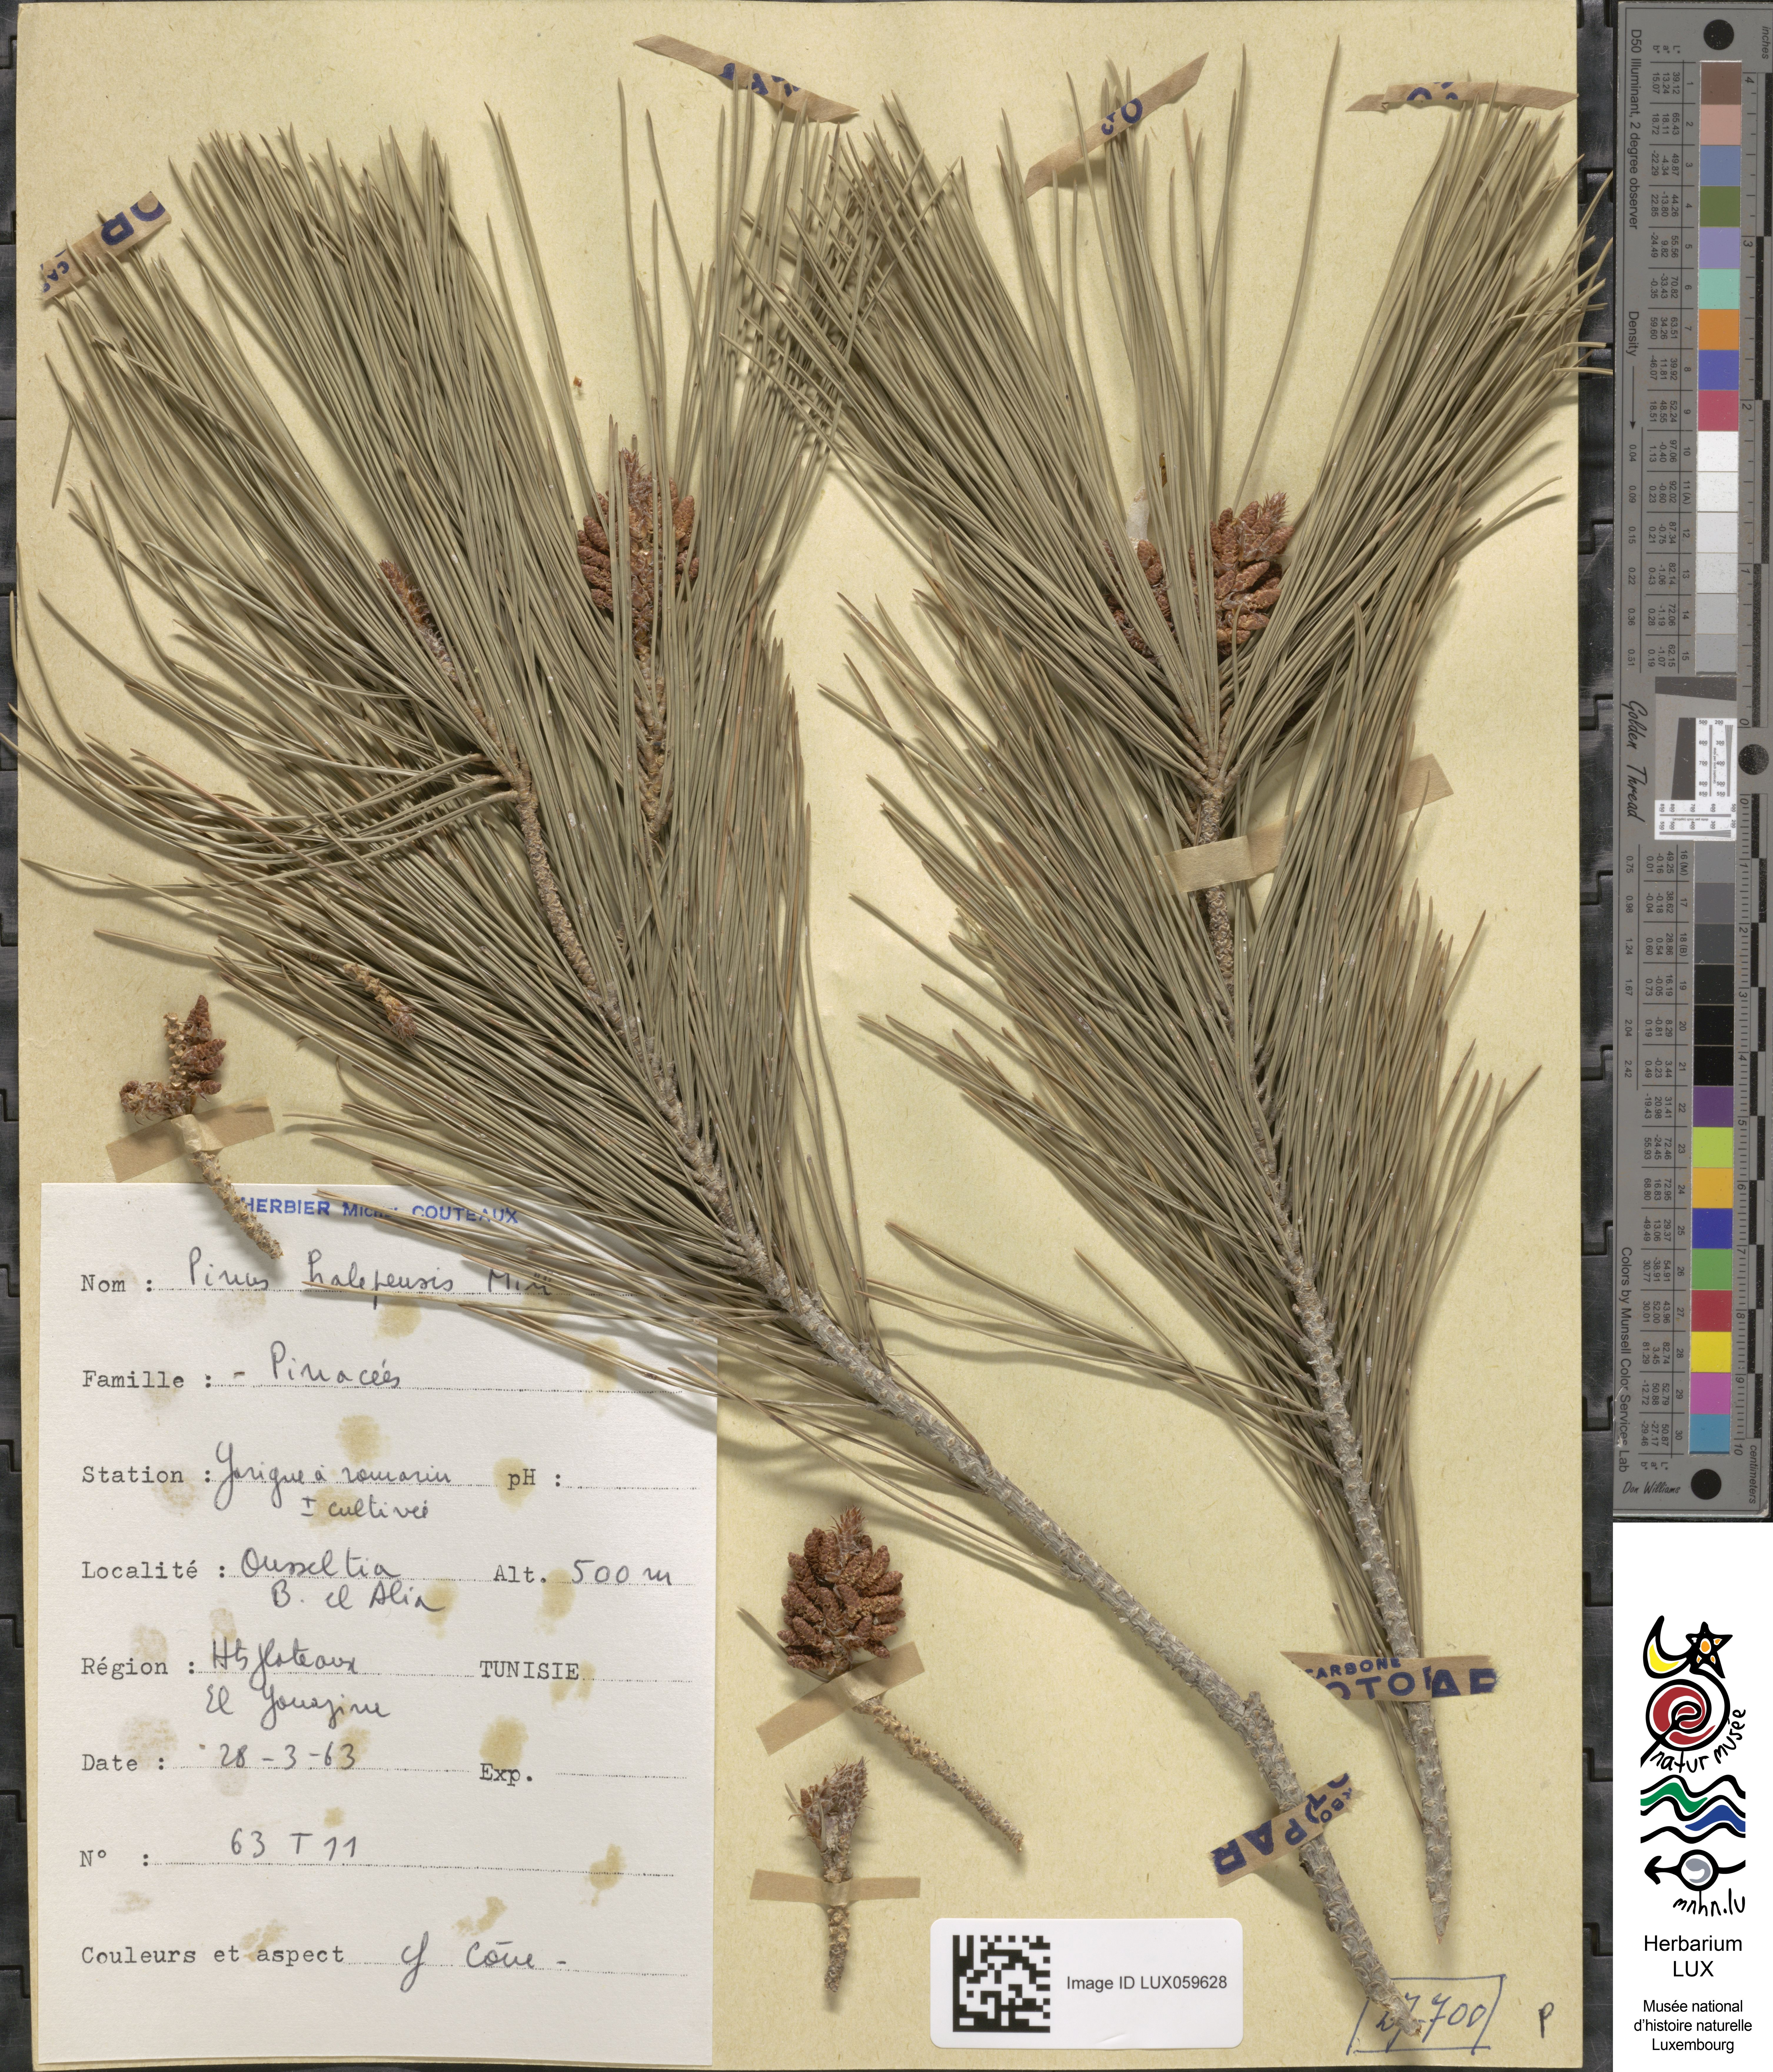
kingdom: Plantae
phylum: Tracheophyta
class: Pinopsida
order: Pinales
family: Pinaceae
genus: Pinus
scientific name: Pinus halepensis
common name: Aleppo pine
